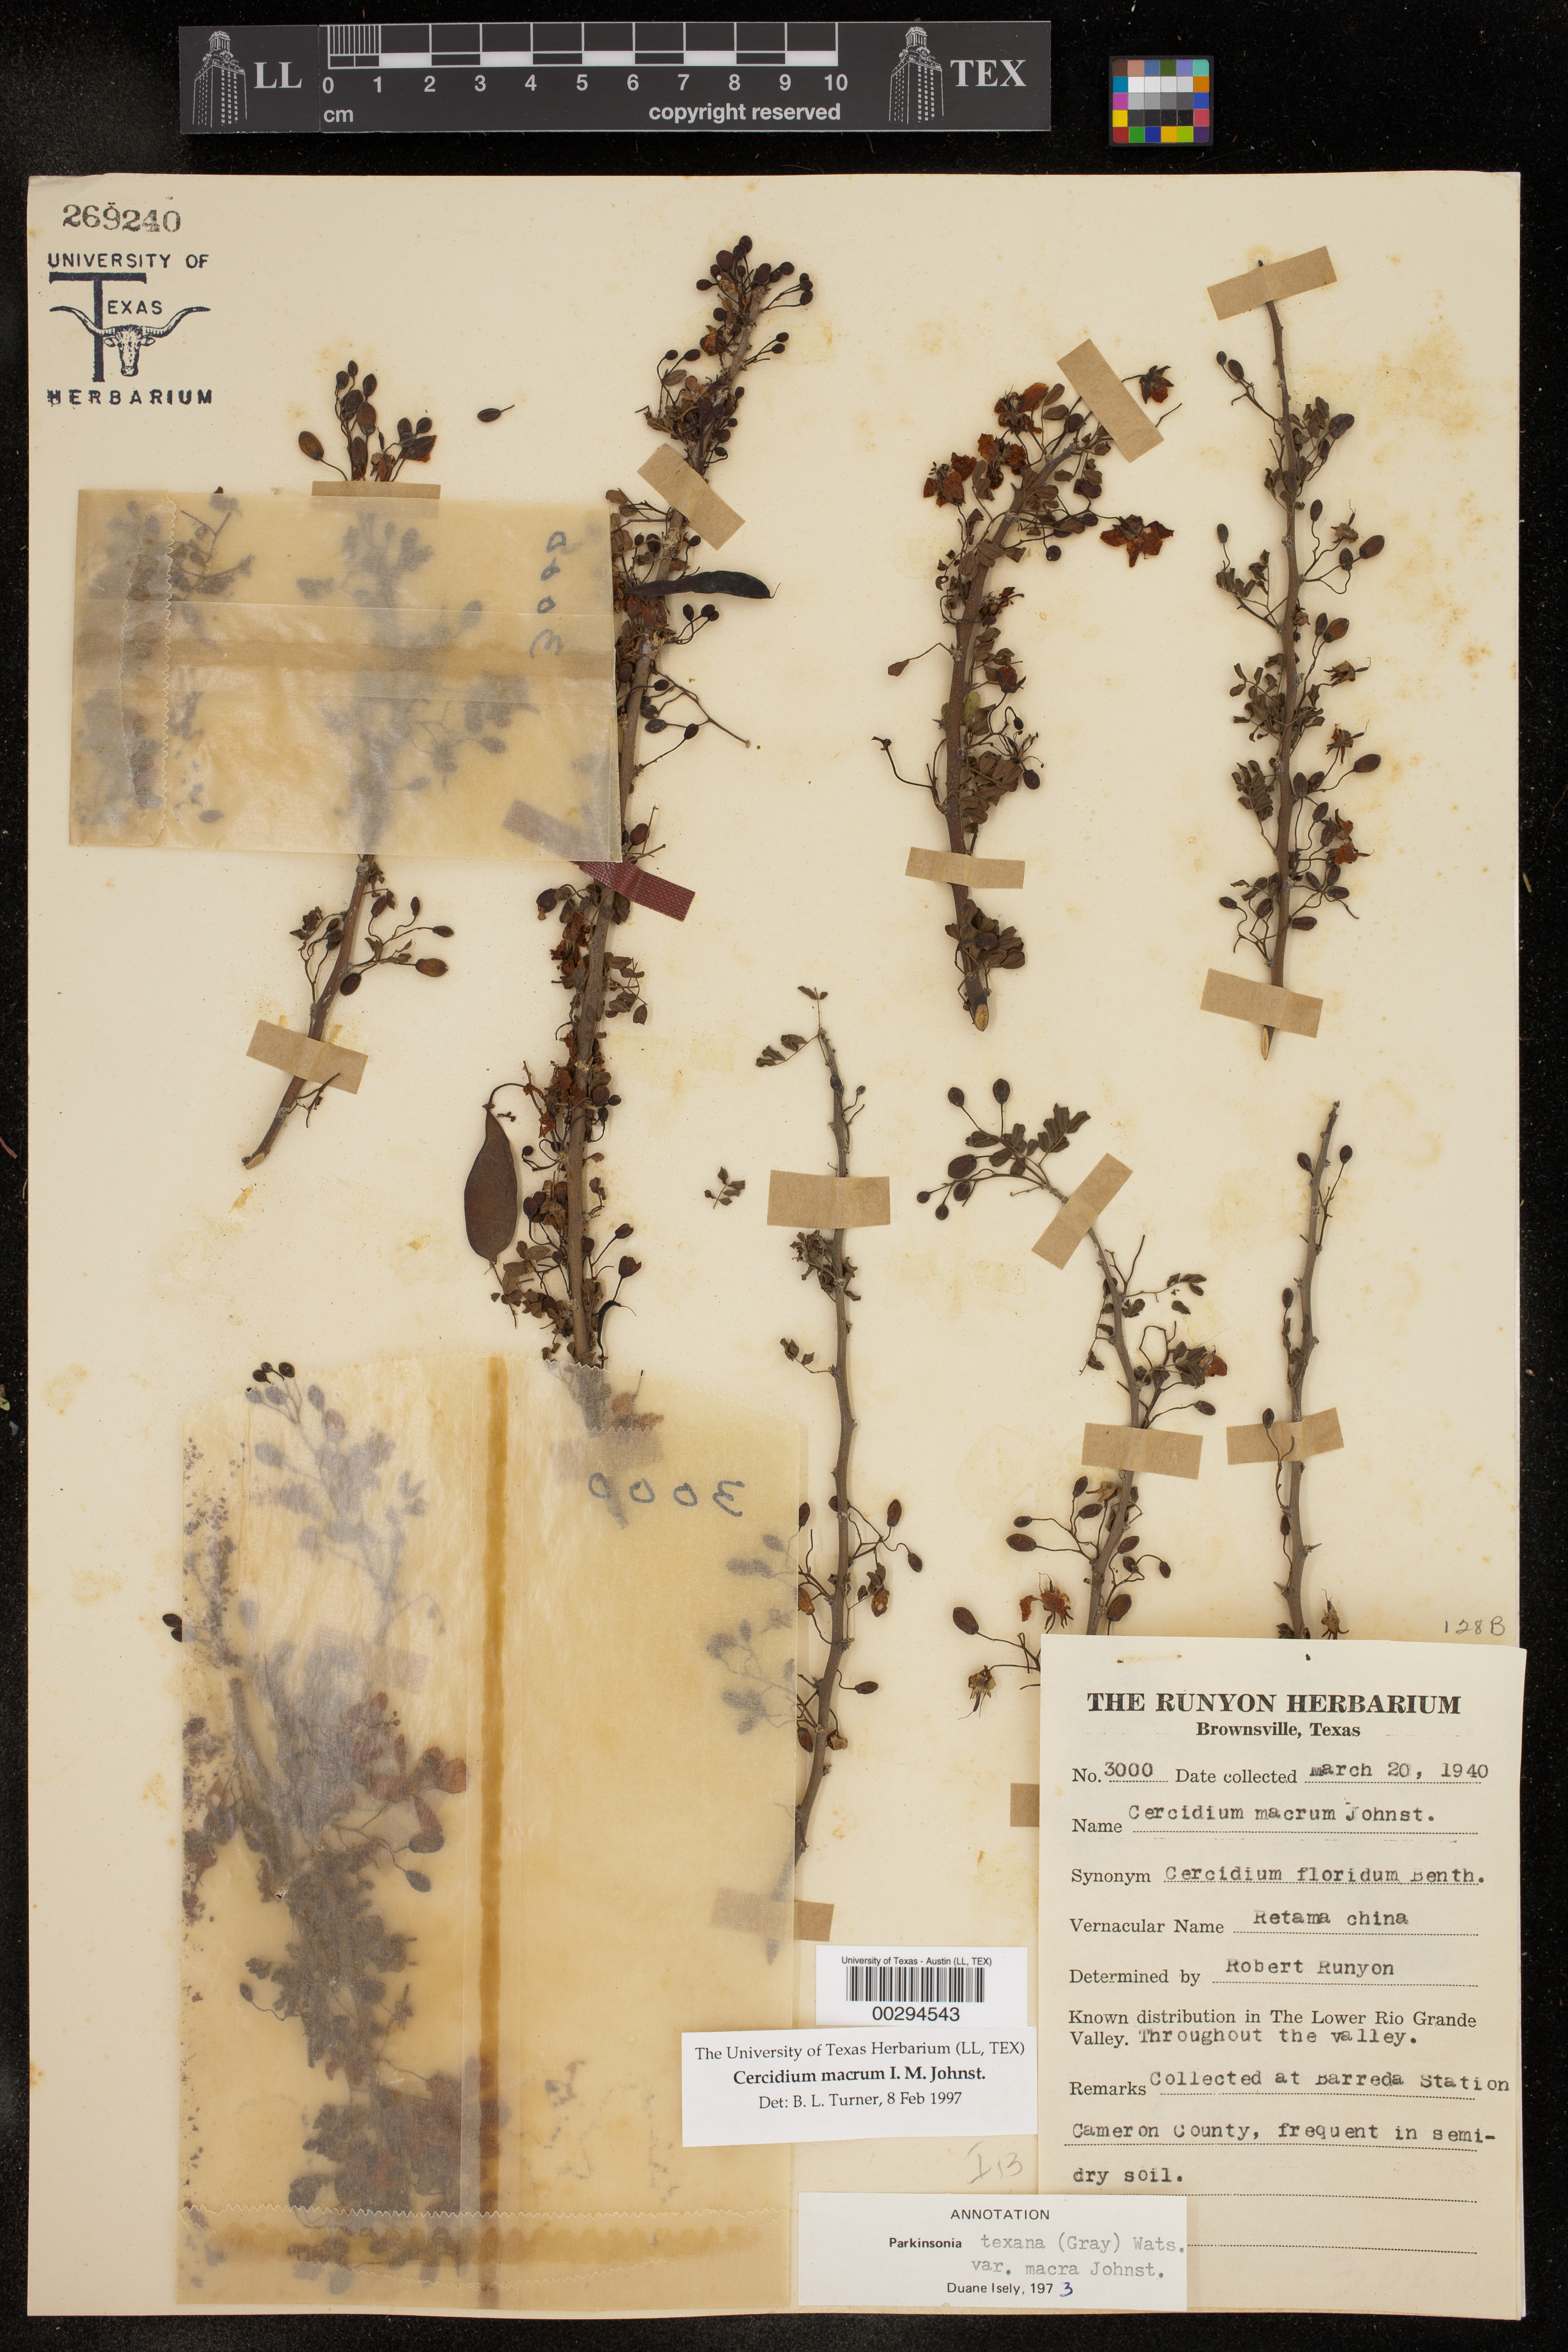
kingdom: Plantae
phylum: Tracheophyta
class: Magnoliopsida
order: Fabales
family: Fabaceae
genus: Parkinsonia
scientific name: Parkinsonia texana
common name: Texas paloverde
